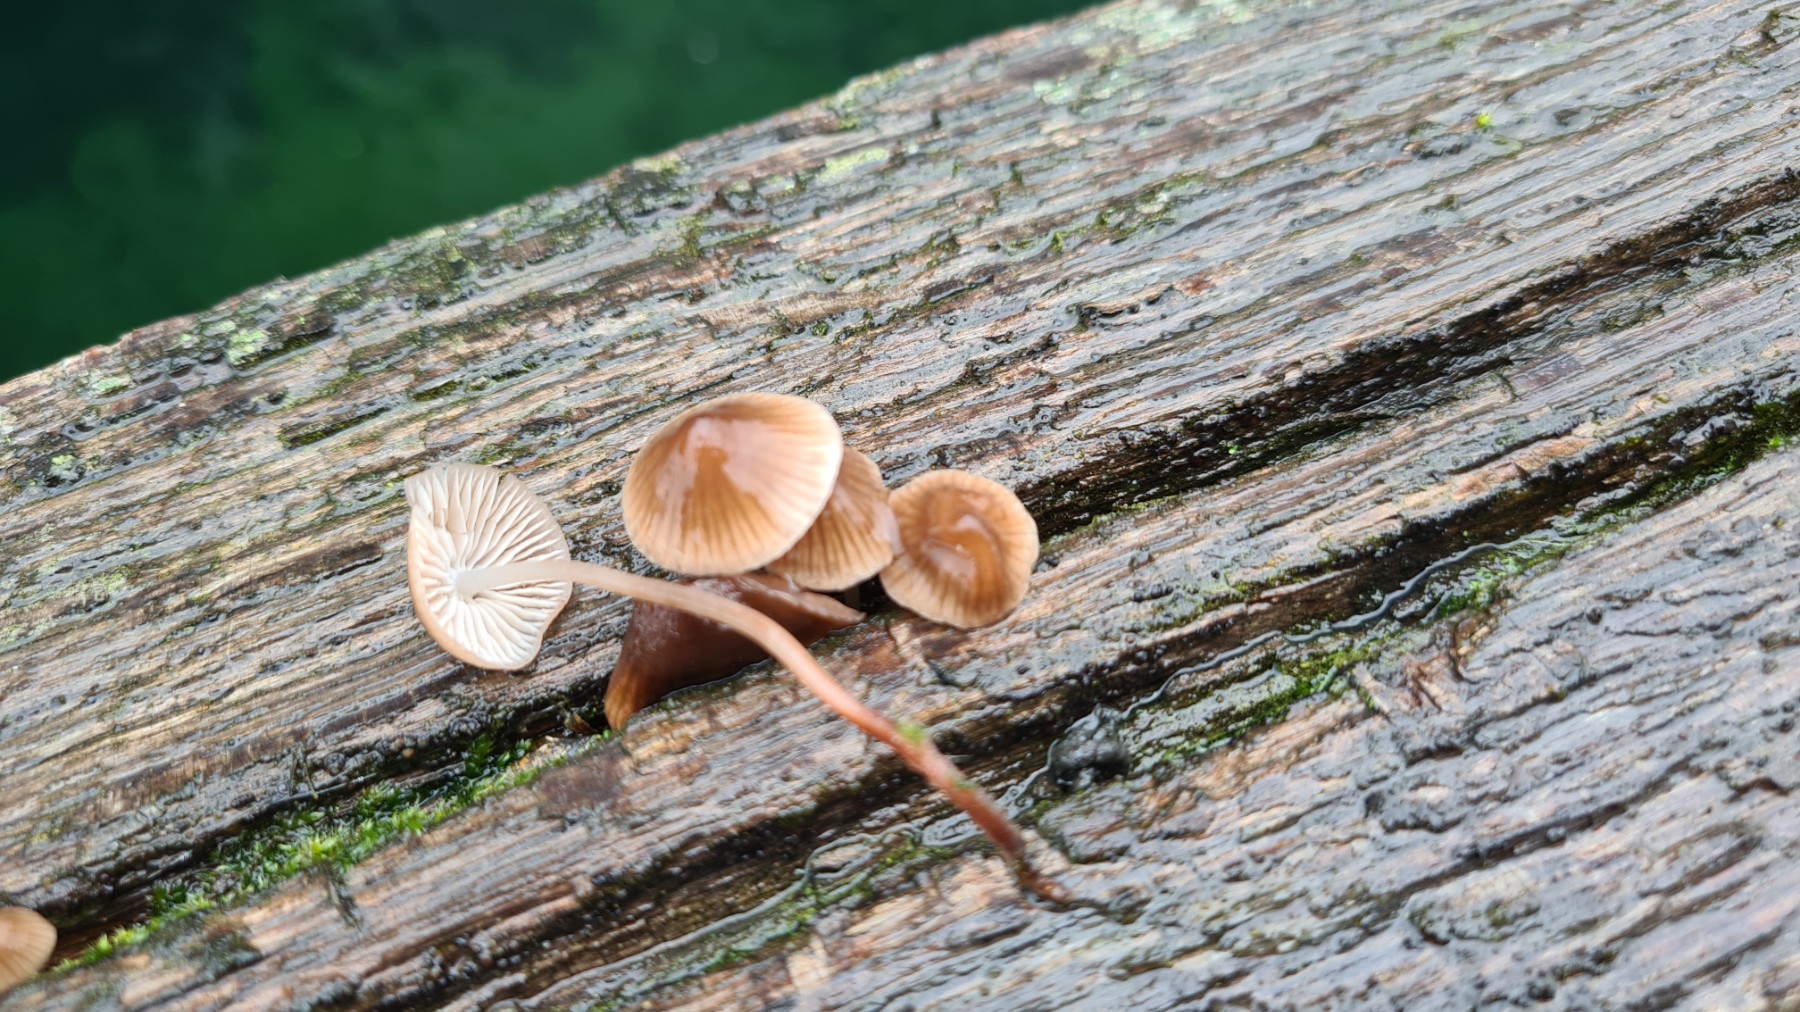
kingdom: Fungi
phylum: Basidiomycota
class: Agaricomycetes
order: Agaricales
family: Mycenaceae
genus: Mycena
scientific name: Mycena
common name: huesvamp
